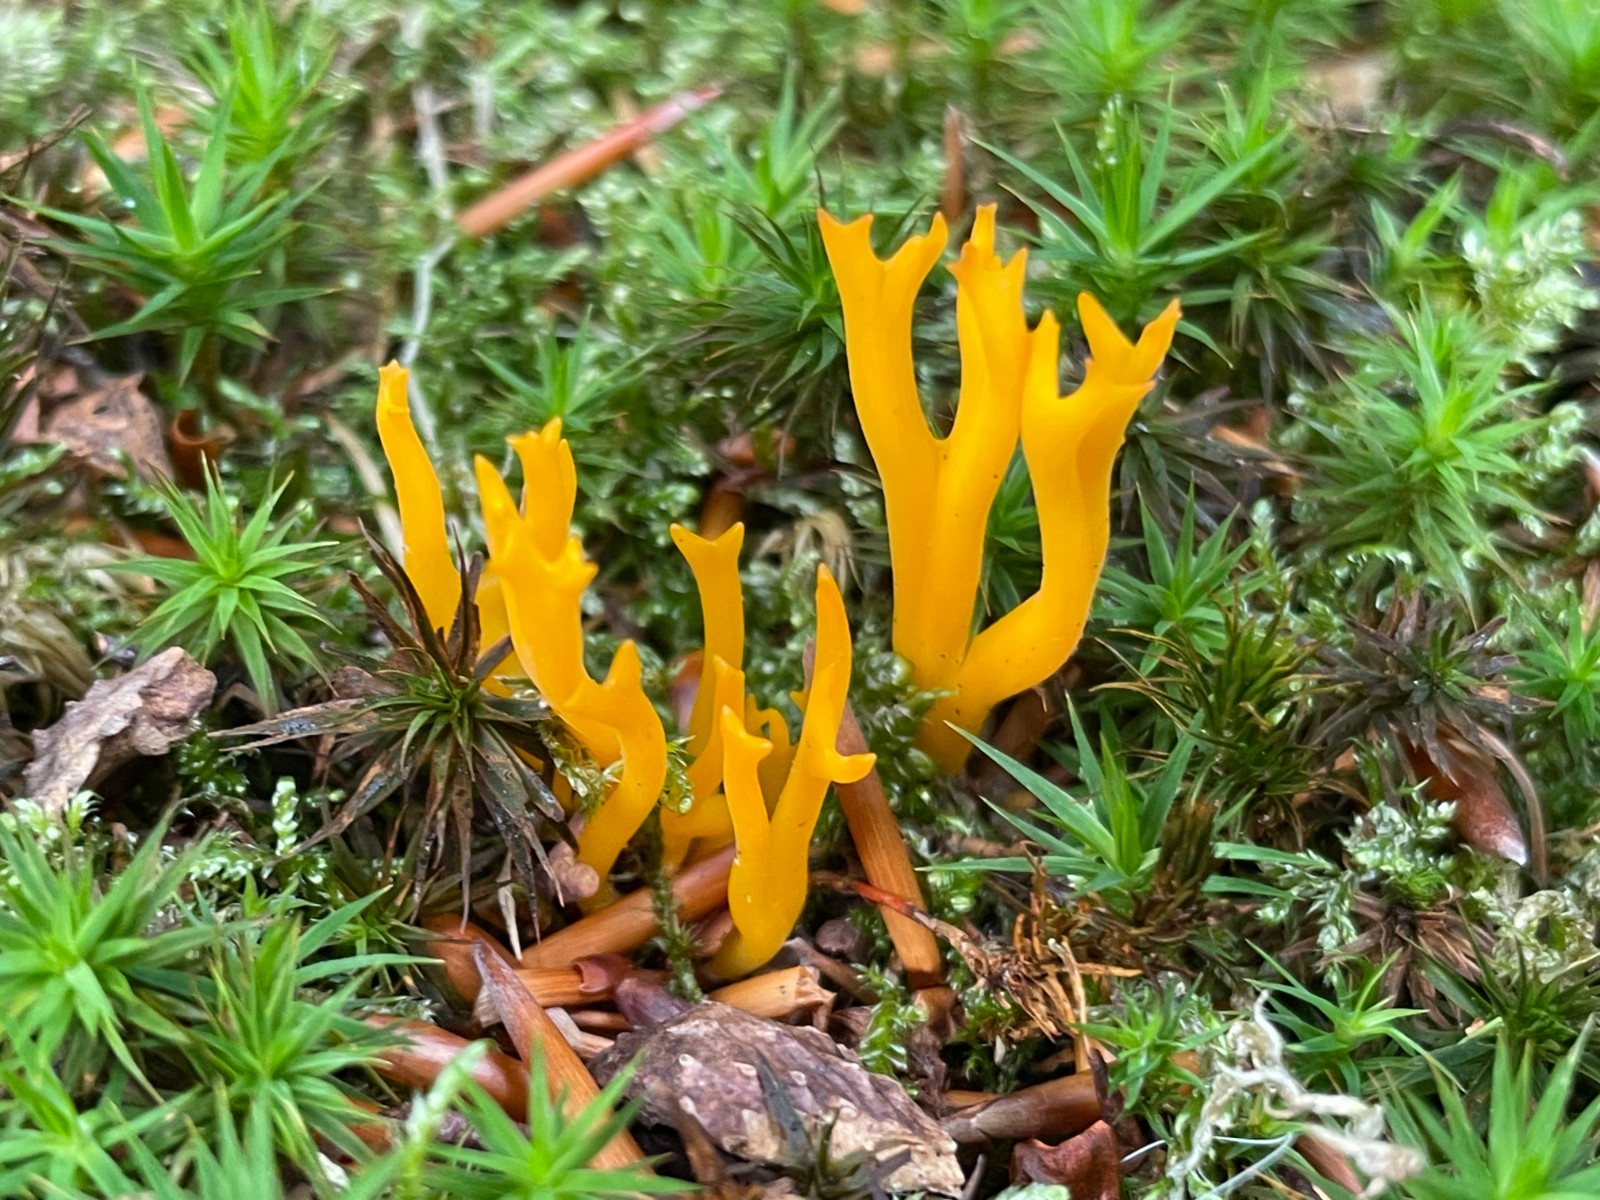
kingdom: Fungi
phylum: Basidiomycota
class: Dacrymycetes
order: Dacrymycetales
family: Dacrymycetaceae
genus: Calocera
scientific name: Calocera viscosa
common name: almindelig guldgaffel
